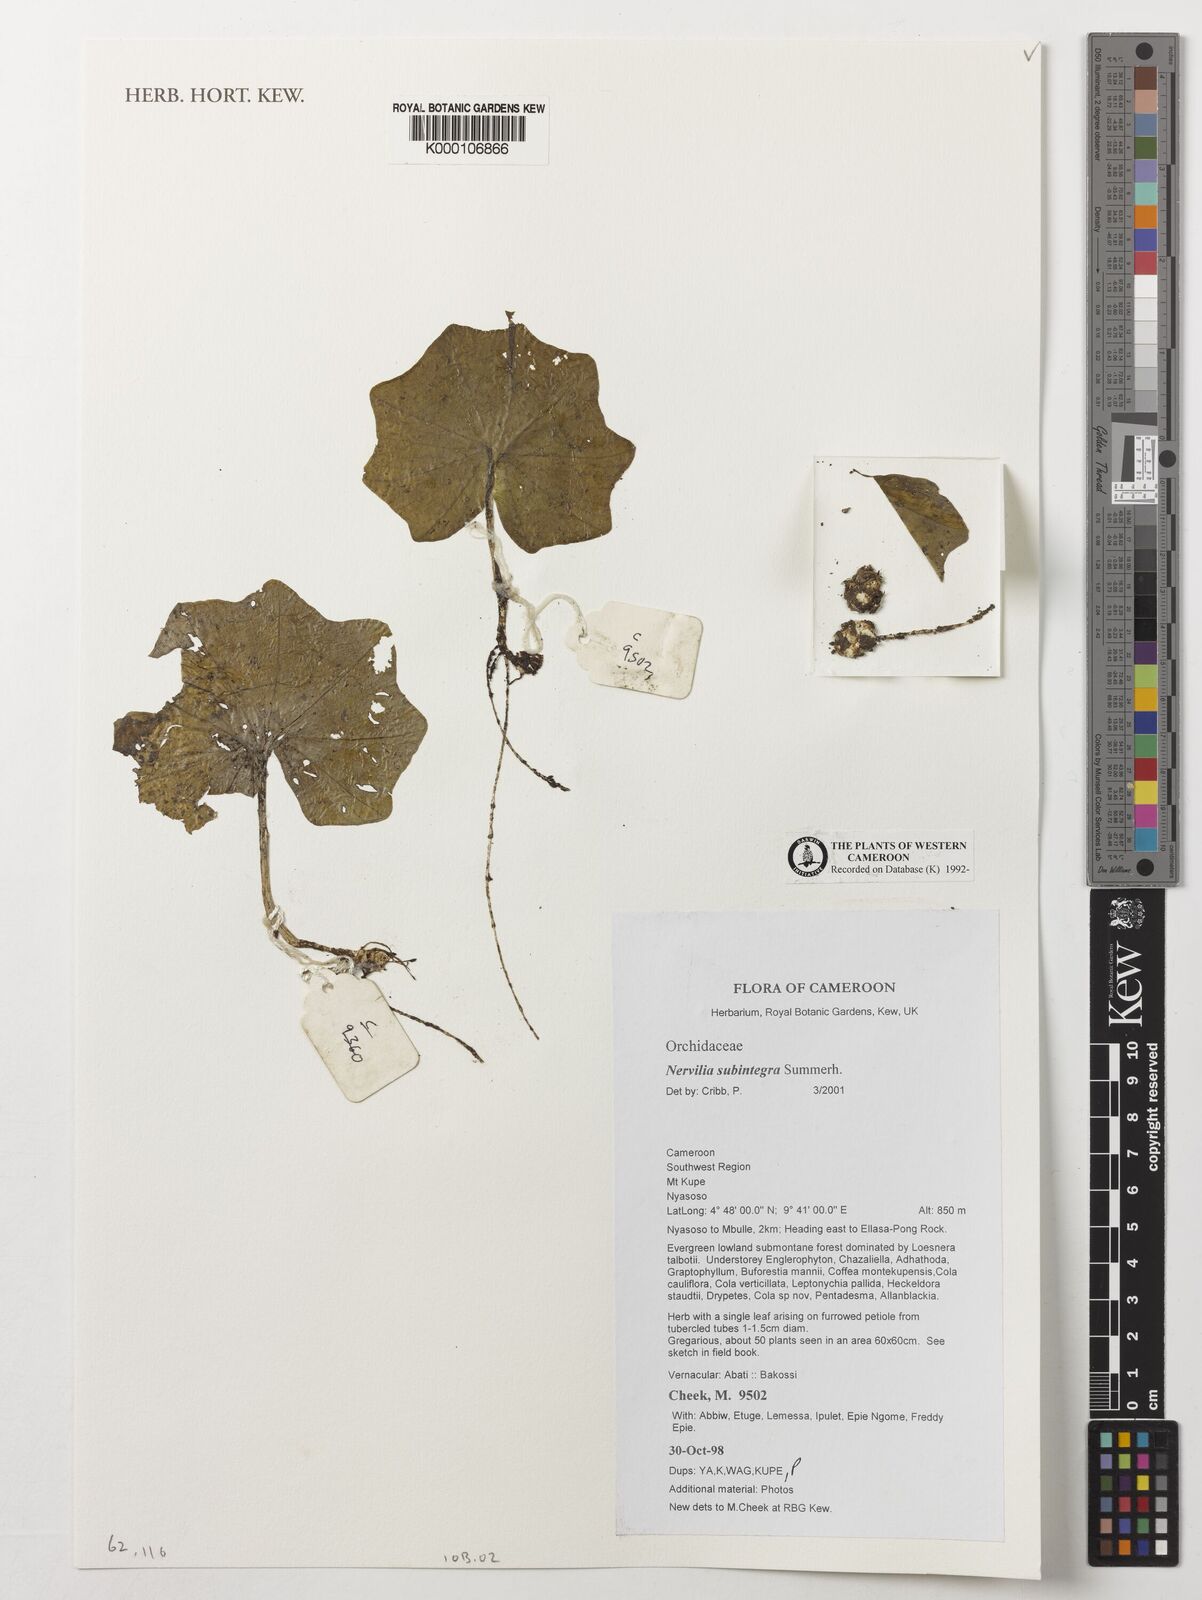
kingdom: Plantae
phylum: Tracheophyta
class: Liliopsida
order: Asparagales
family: Orchidaceae
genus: Nervilia
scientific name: Nervilia subintegra
